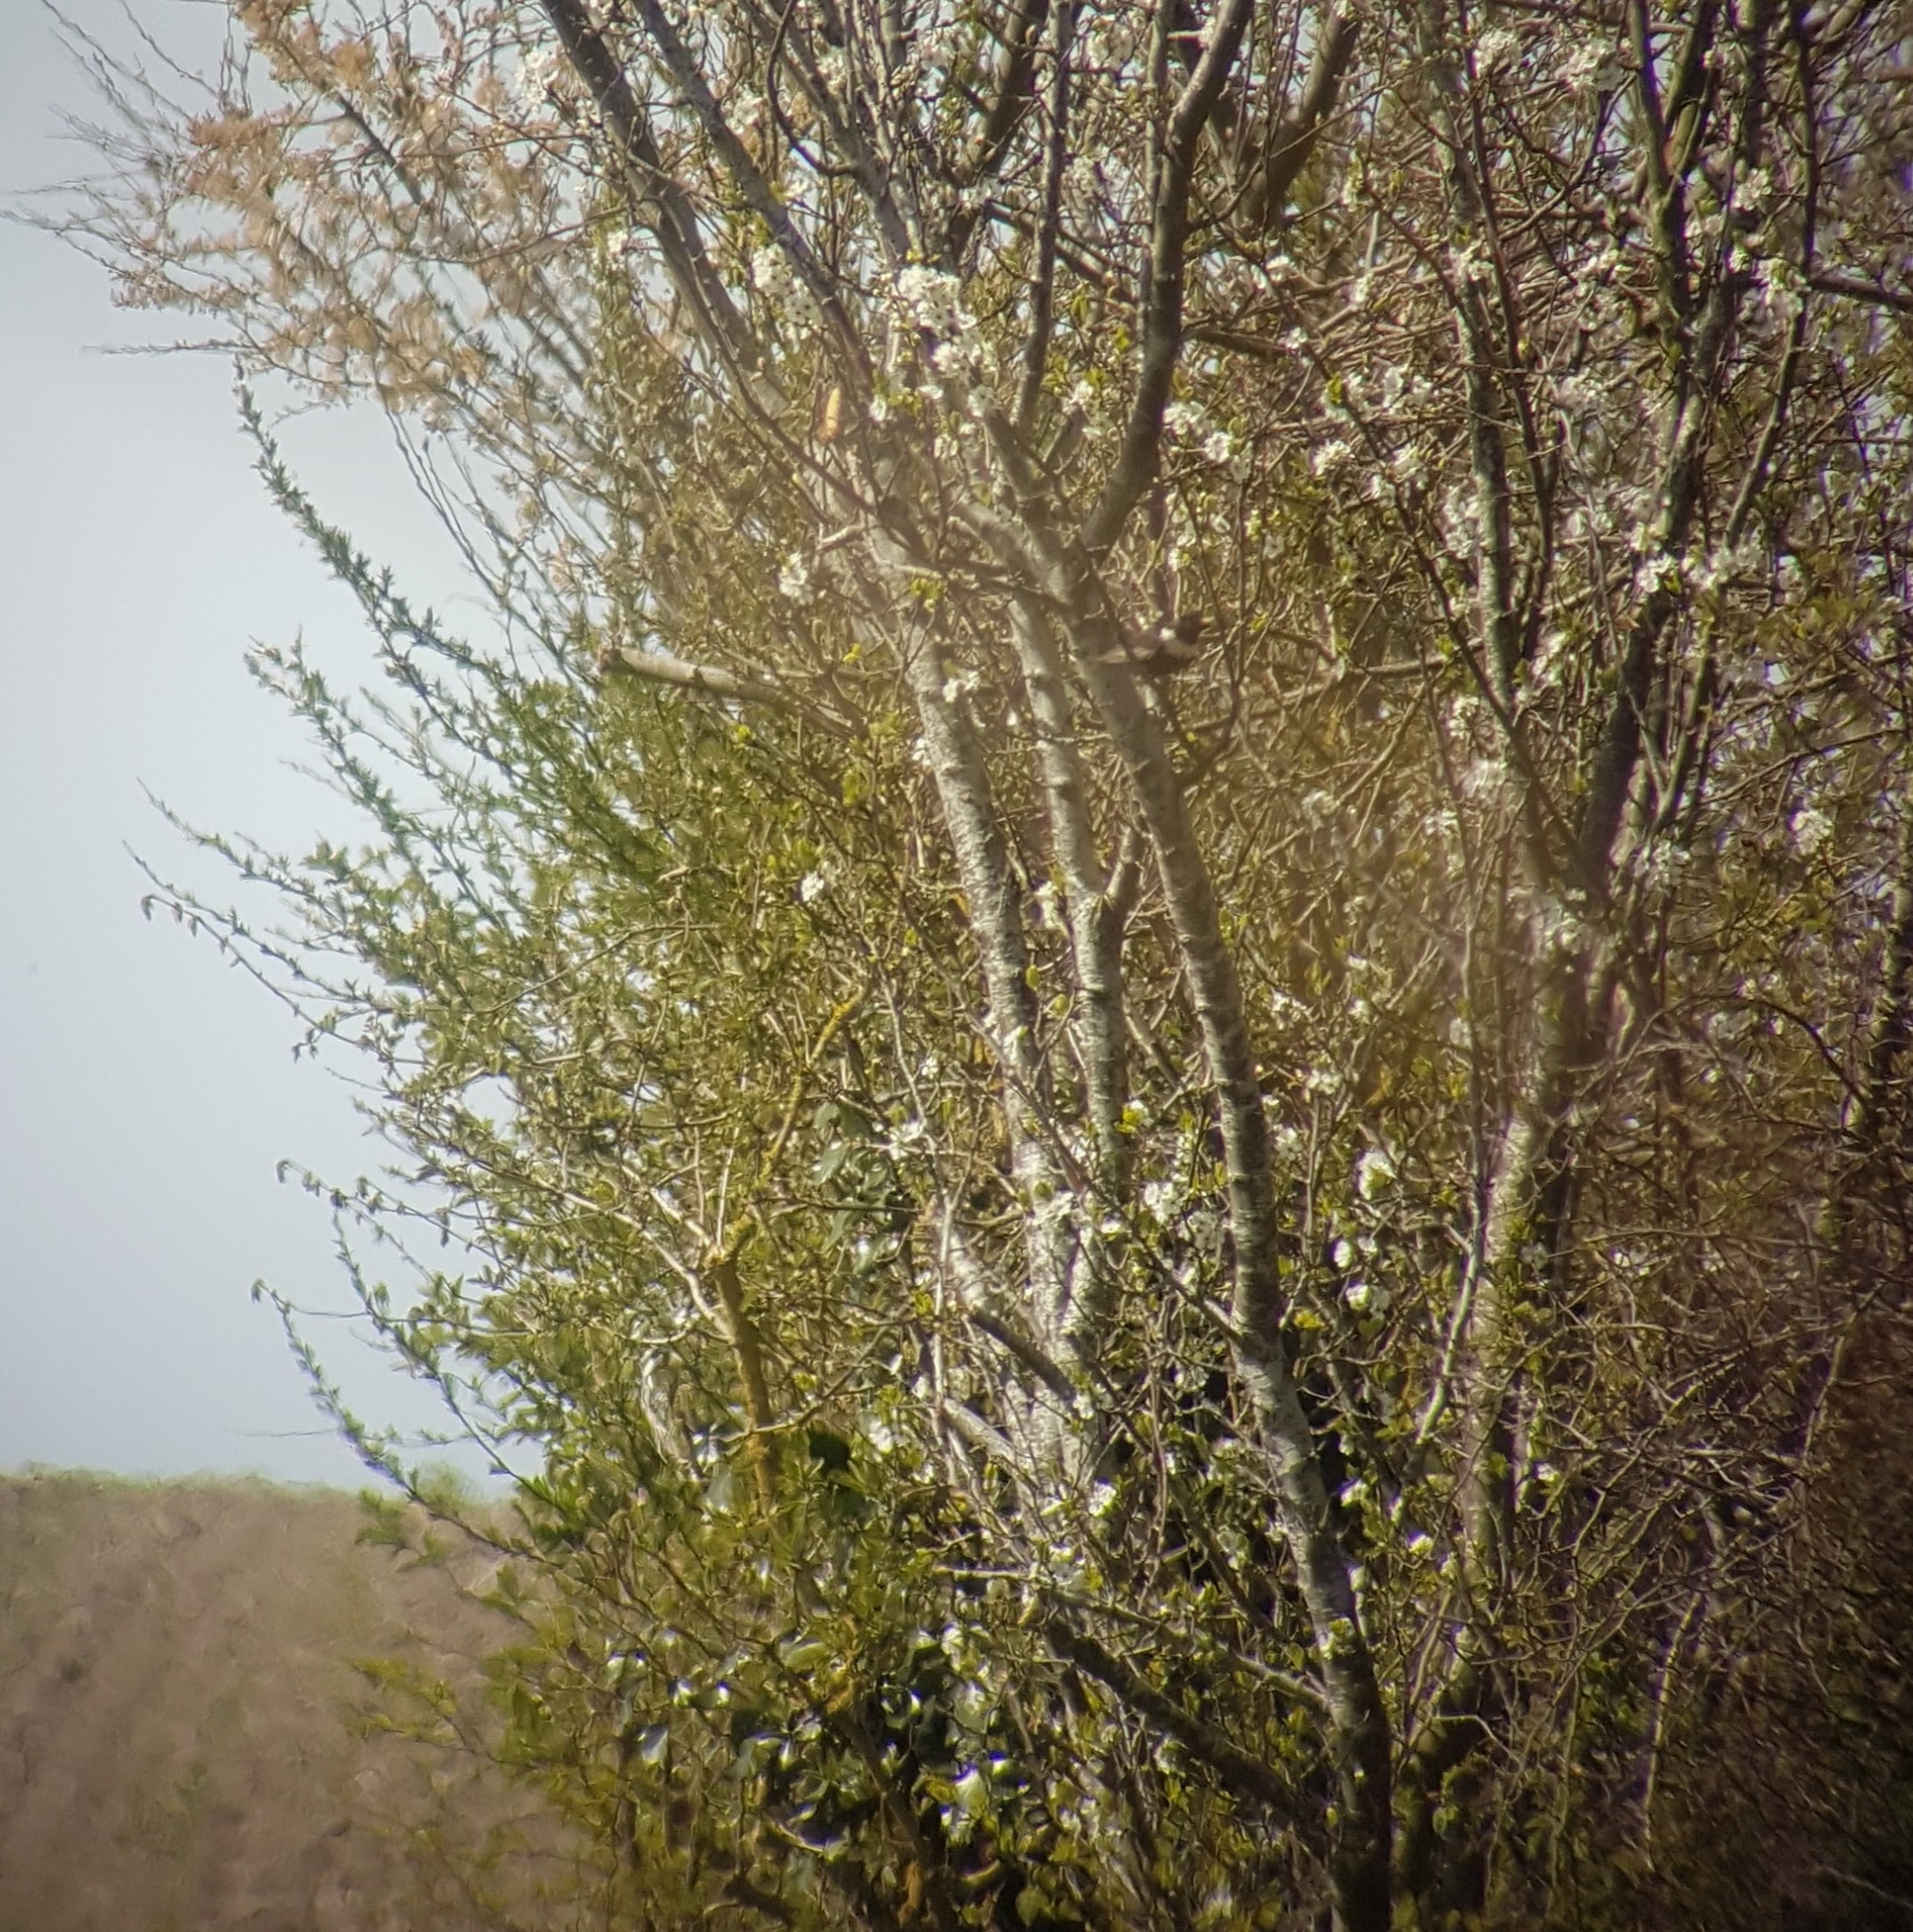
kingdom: Animalia
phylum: Chordata
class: Aves
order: Passeriformes
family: Turdidae
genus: Turdus
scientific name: Turdus torquatus
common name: Ringdrossel
